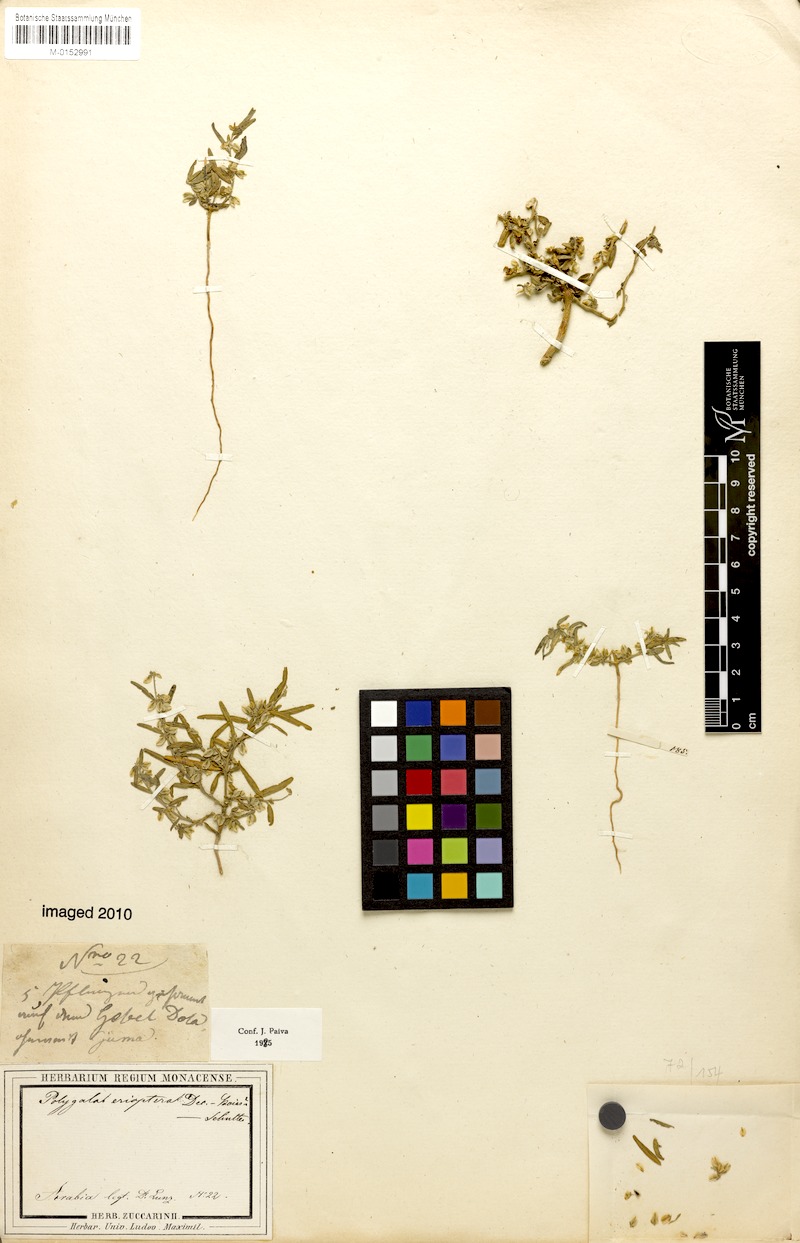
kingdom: Plantae
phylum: Tracheophyta
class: Magnoliopsida
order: Fabales
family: Polygalaceae
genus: Polygala
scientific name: Polygala erioptera
